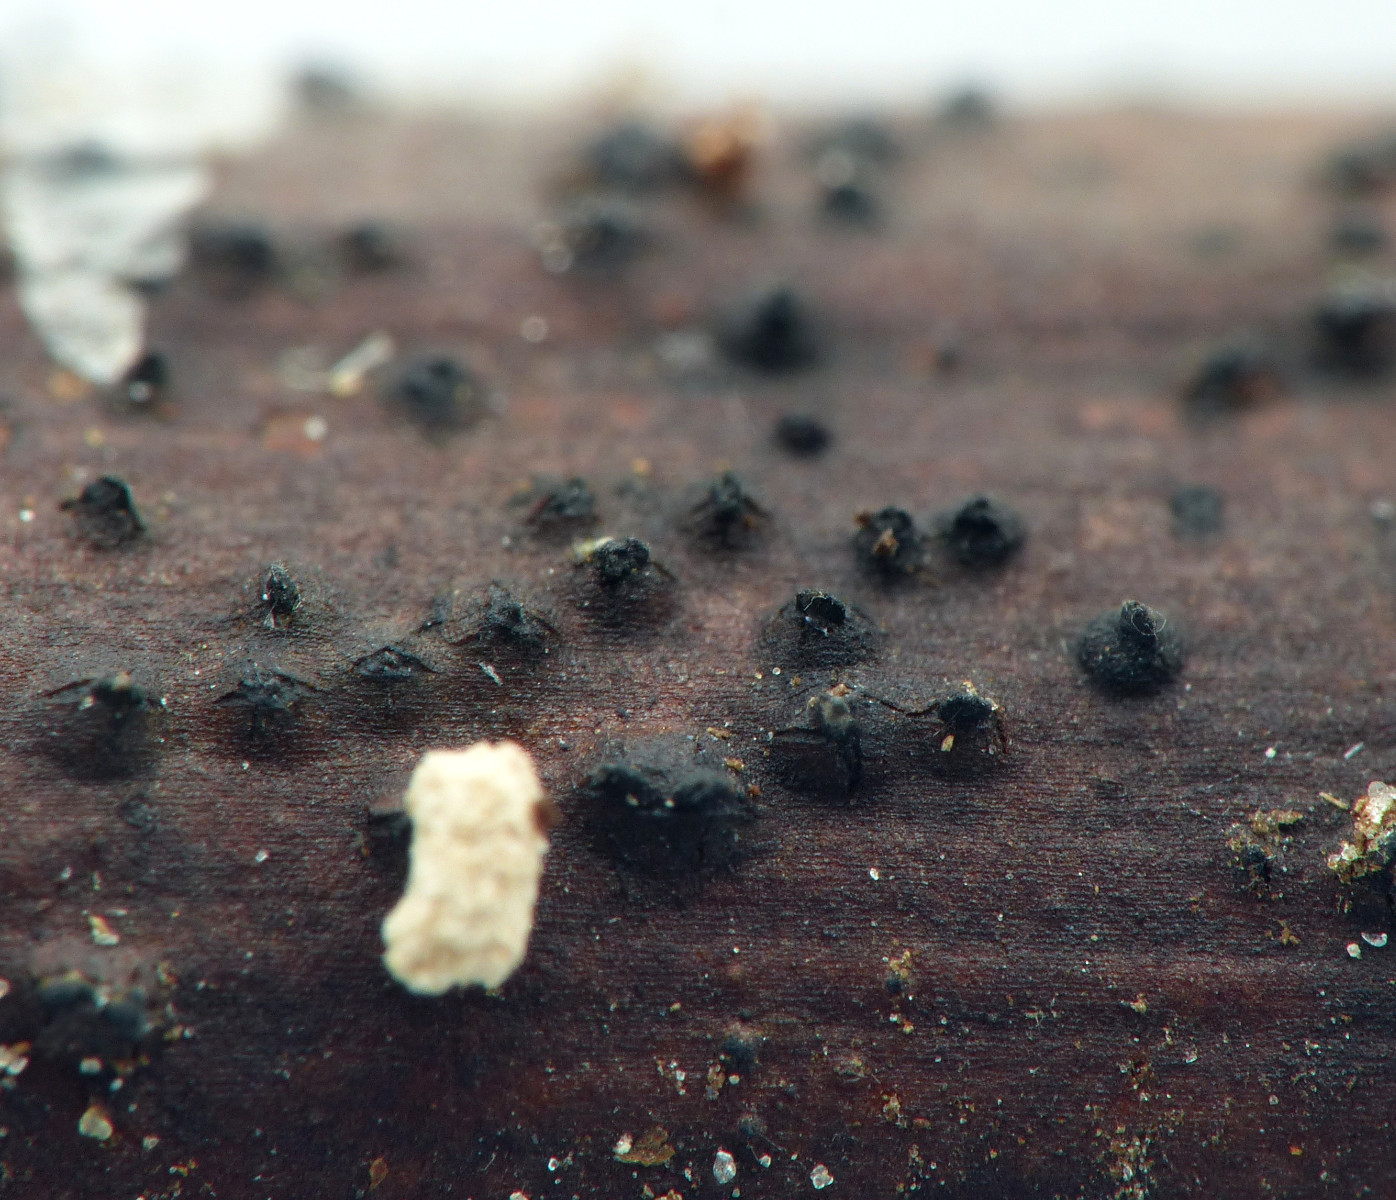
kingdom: Fungi
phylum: Ascomycota
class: Dothideomycetes
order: Pleosporales
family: Lophiostomataceae
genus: Lophiostoma
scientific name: Lophiostoma macrostomum
